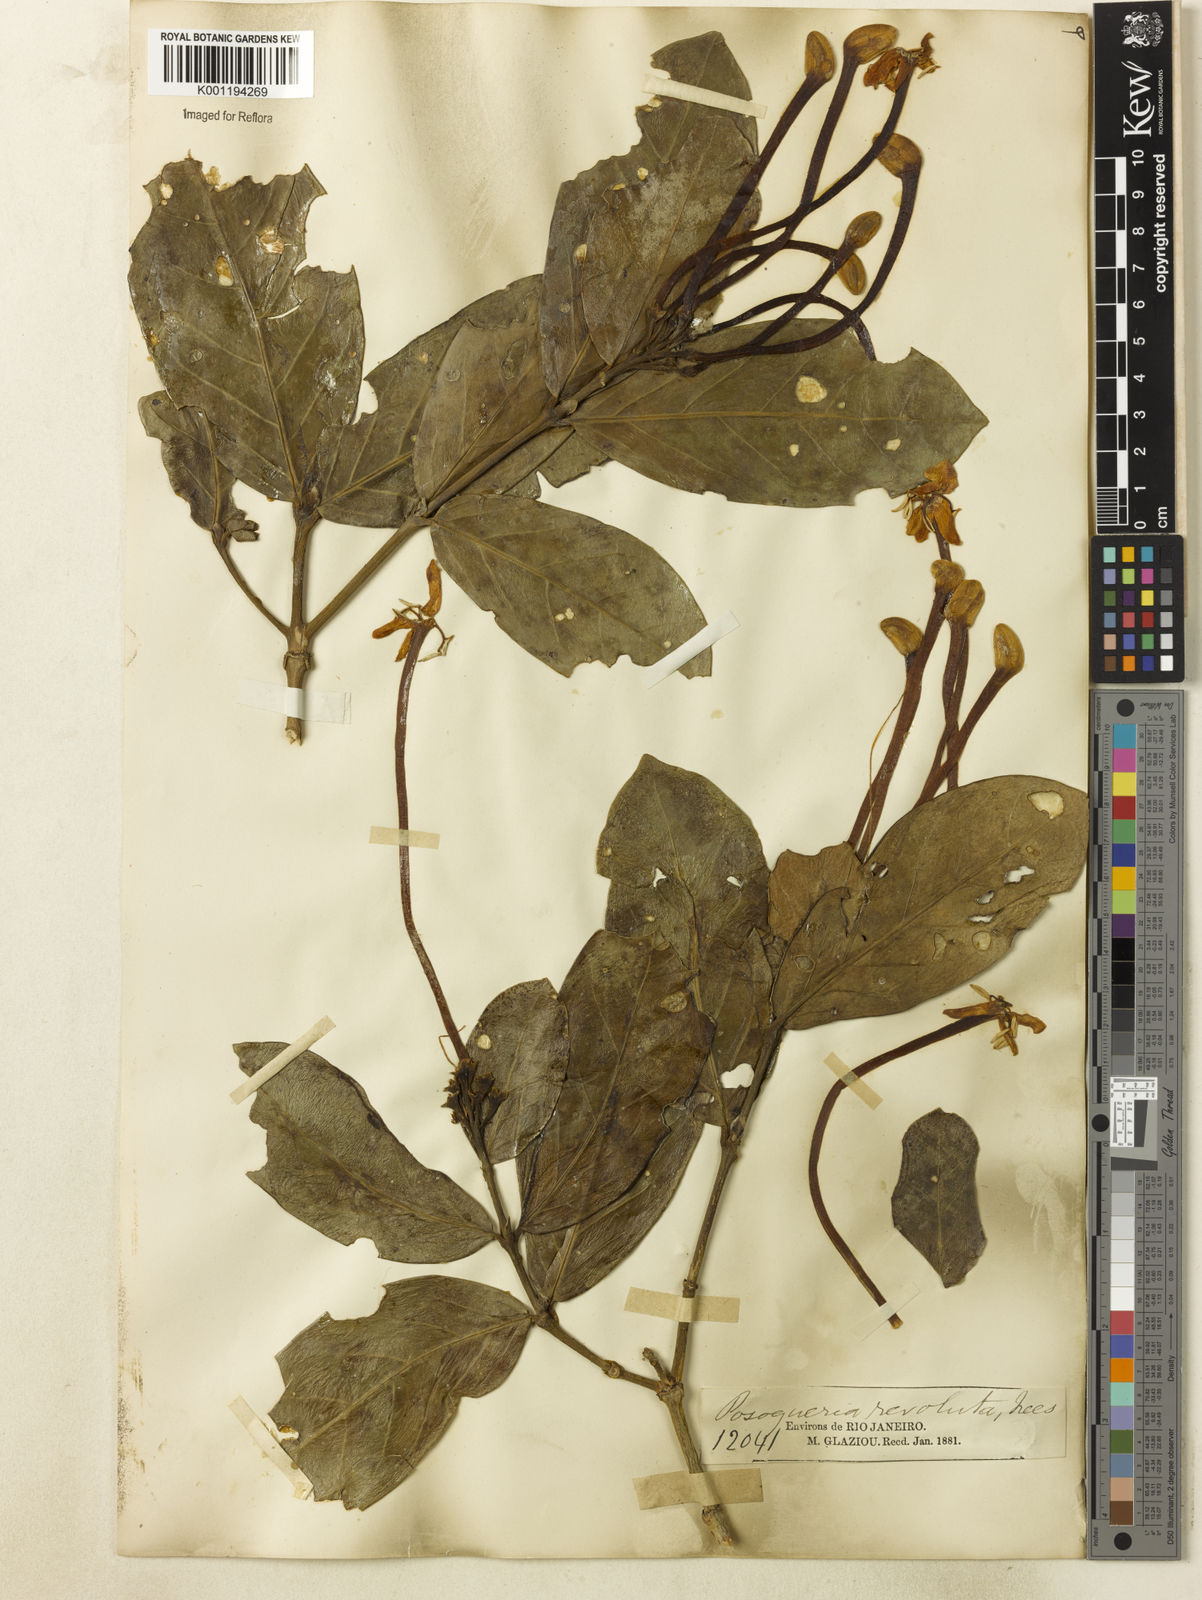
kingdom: Plantae
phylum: Tracheophyta
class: Magnoliopsida
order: Gentianales
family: Rubiaceae
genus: Posoqueria
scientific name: Posoqueria latifolia
